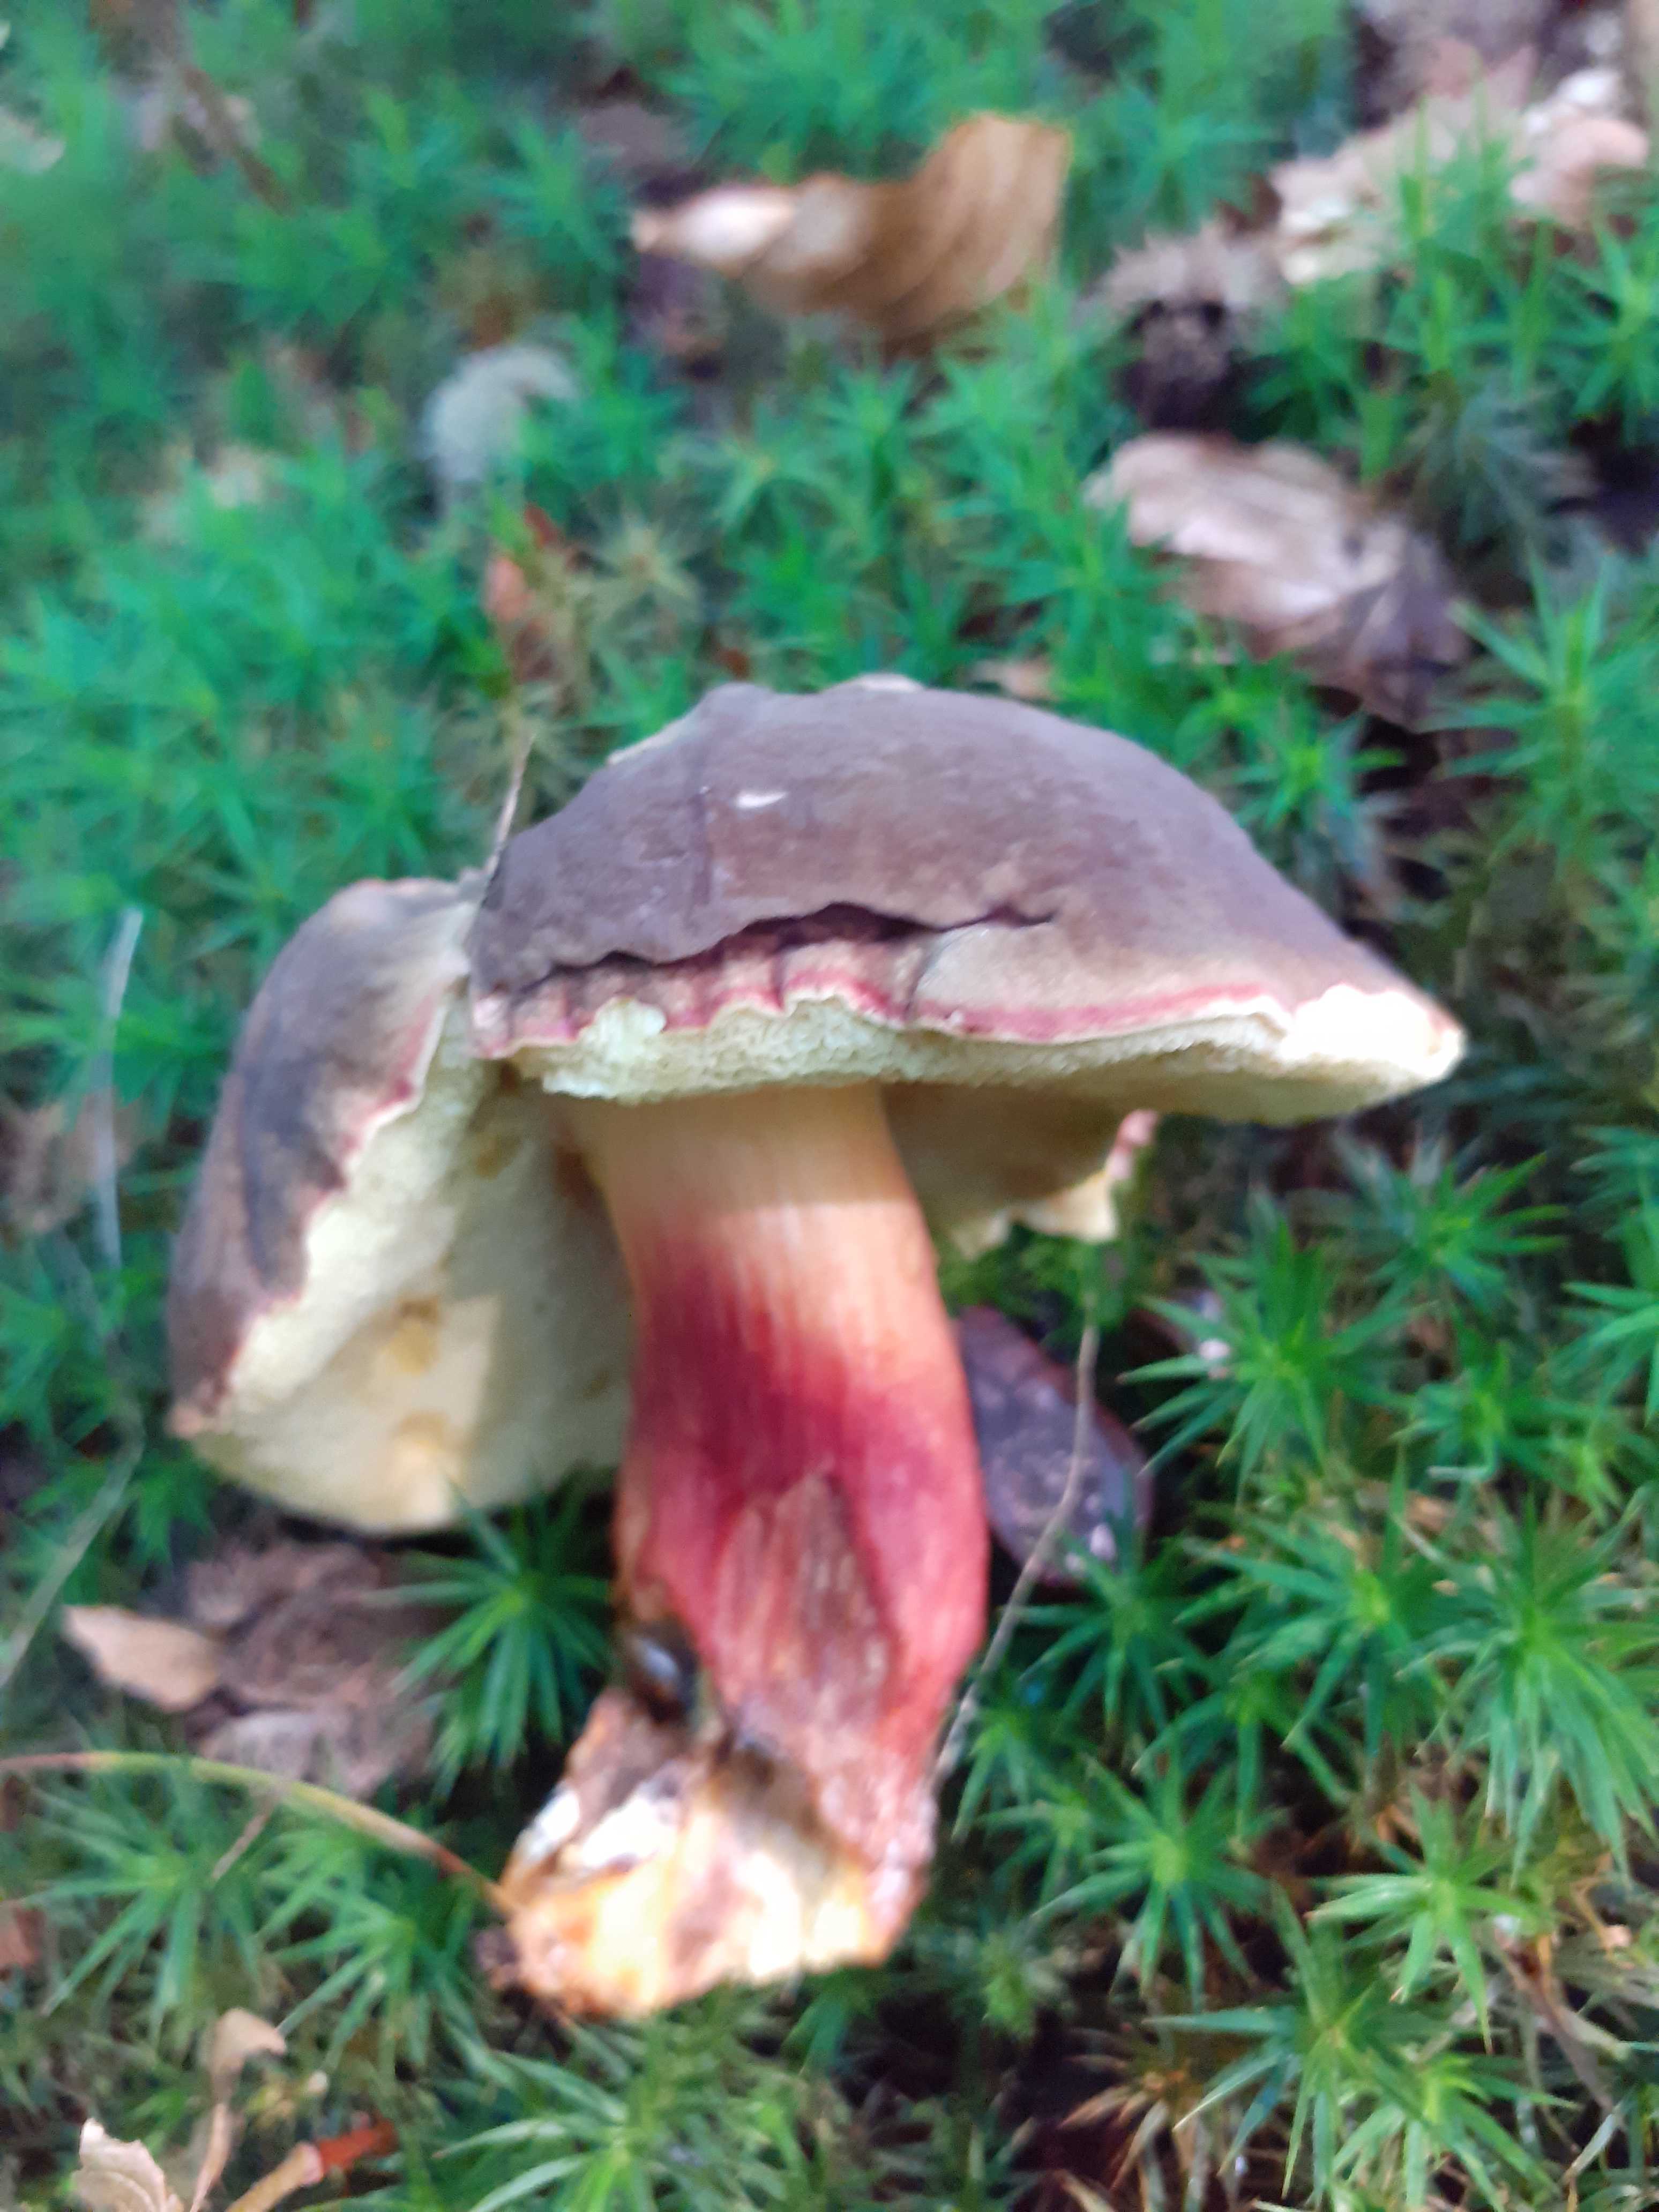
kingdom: Fungi
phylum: Basidiomycota
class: Agaricomycetes
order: Boletales
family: Boletaceae
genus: Xerocomellus
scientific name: Xerocomellus pruinatus
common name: dugget rørhat
